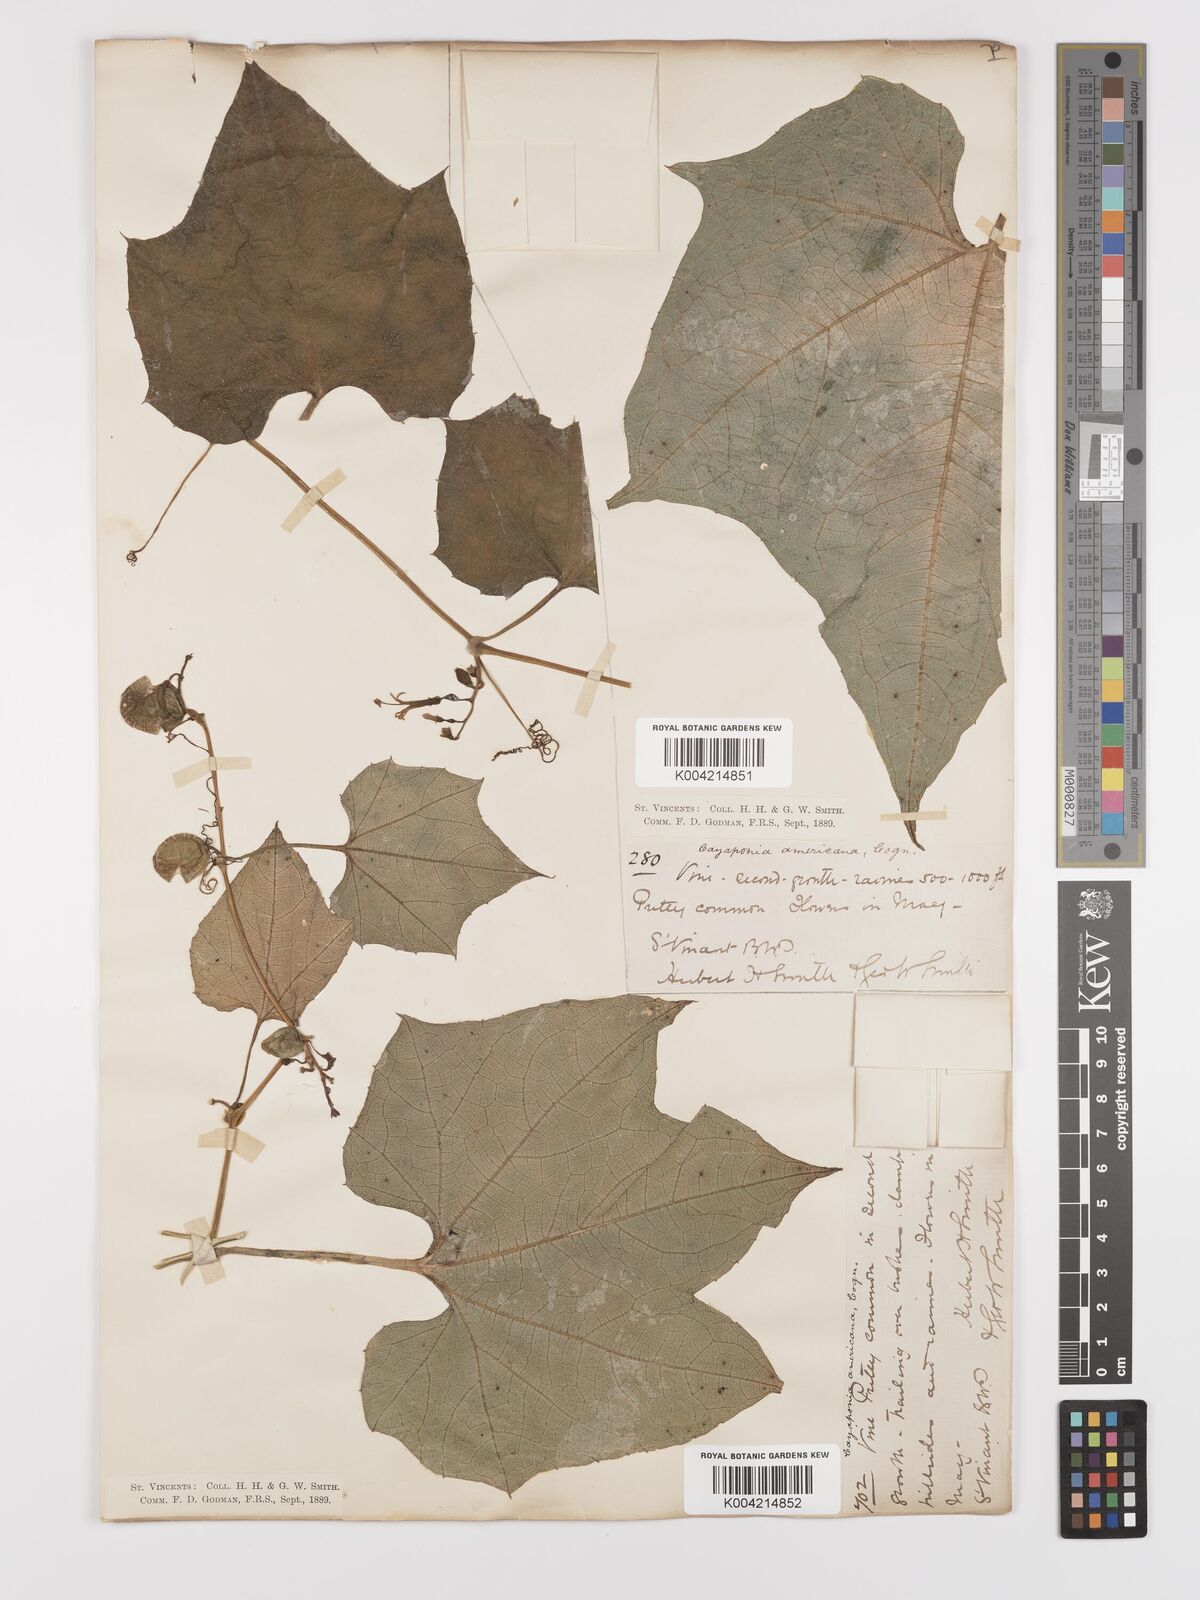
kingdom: Plantae
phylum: Tracheophyta
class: Magnoliopsida
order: Cucurbitales
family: Cucurbitaceae
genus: Cayaponia
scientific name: Cayaponia americana
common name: American melonleaf
